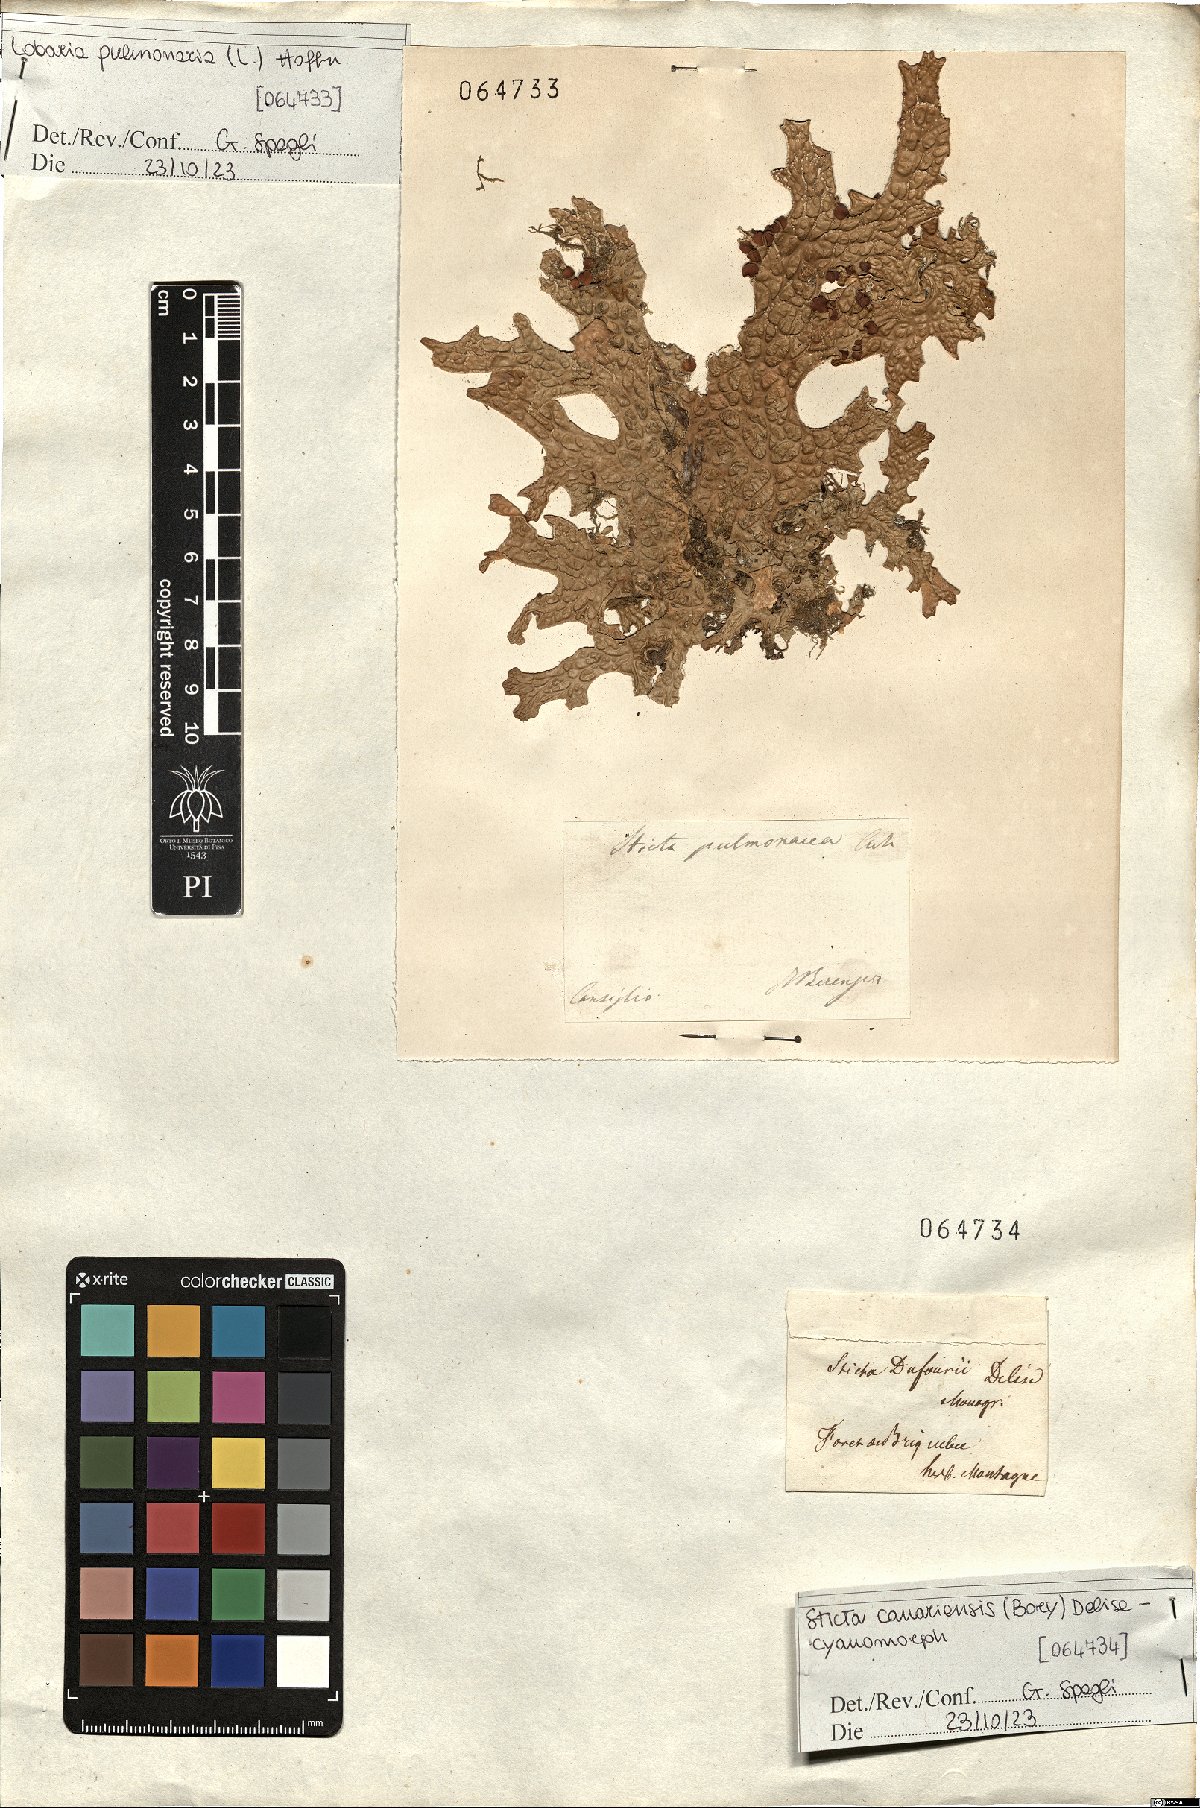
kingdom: Fungi
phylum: Ascomycota
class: Lecanoromycetes
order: Peltigerales
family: Lobariaceae
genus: Lobaria
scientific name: Lobaria pulmonaria
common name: Lungwort
